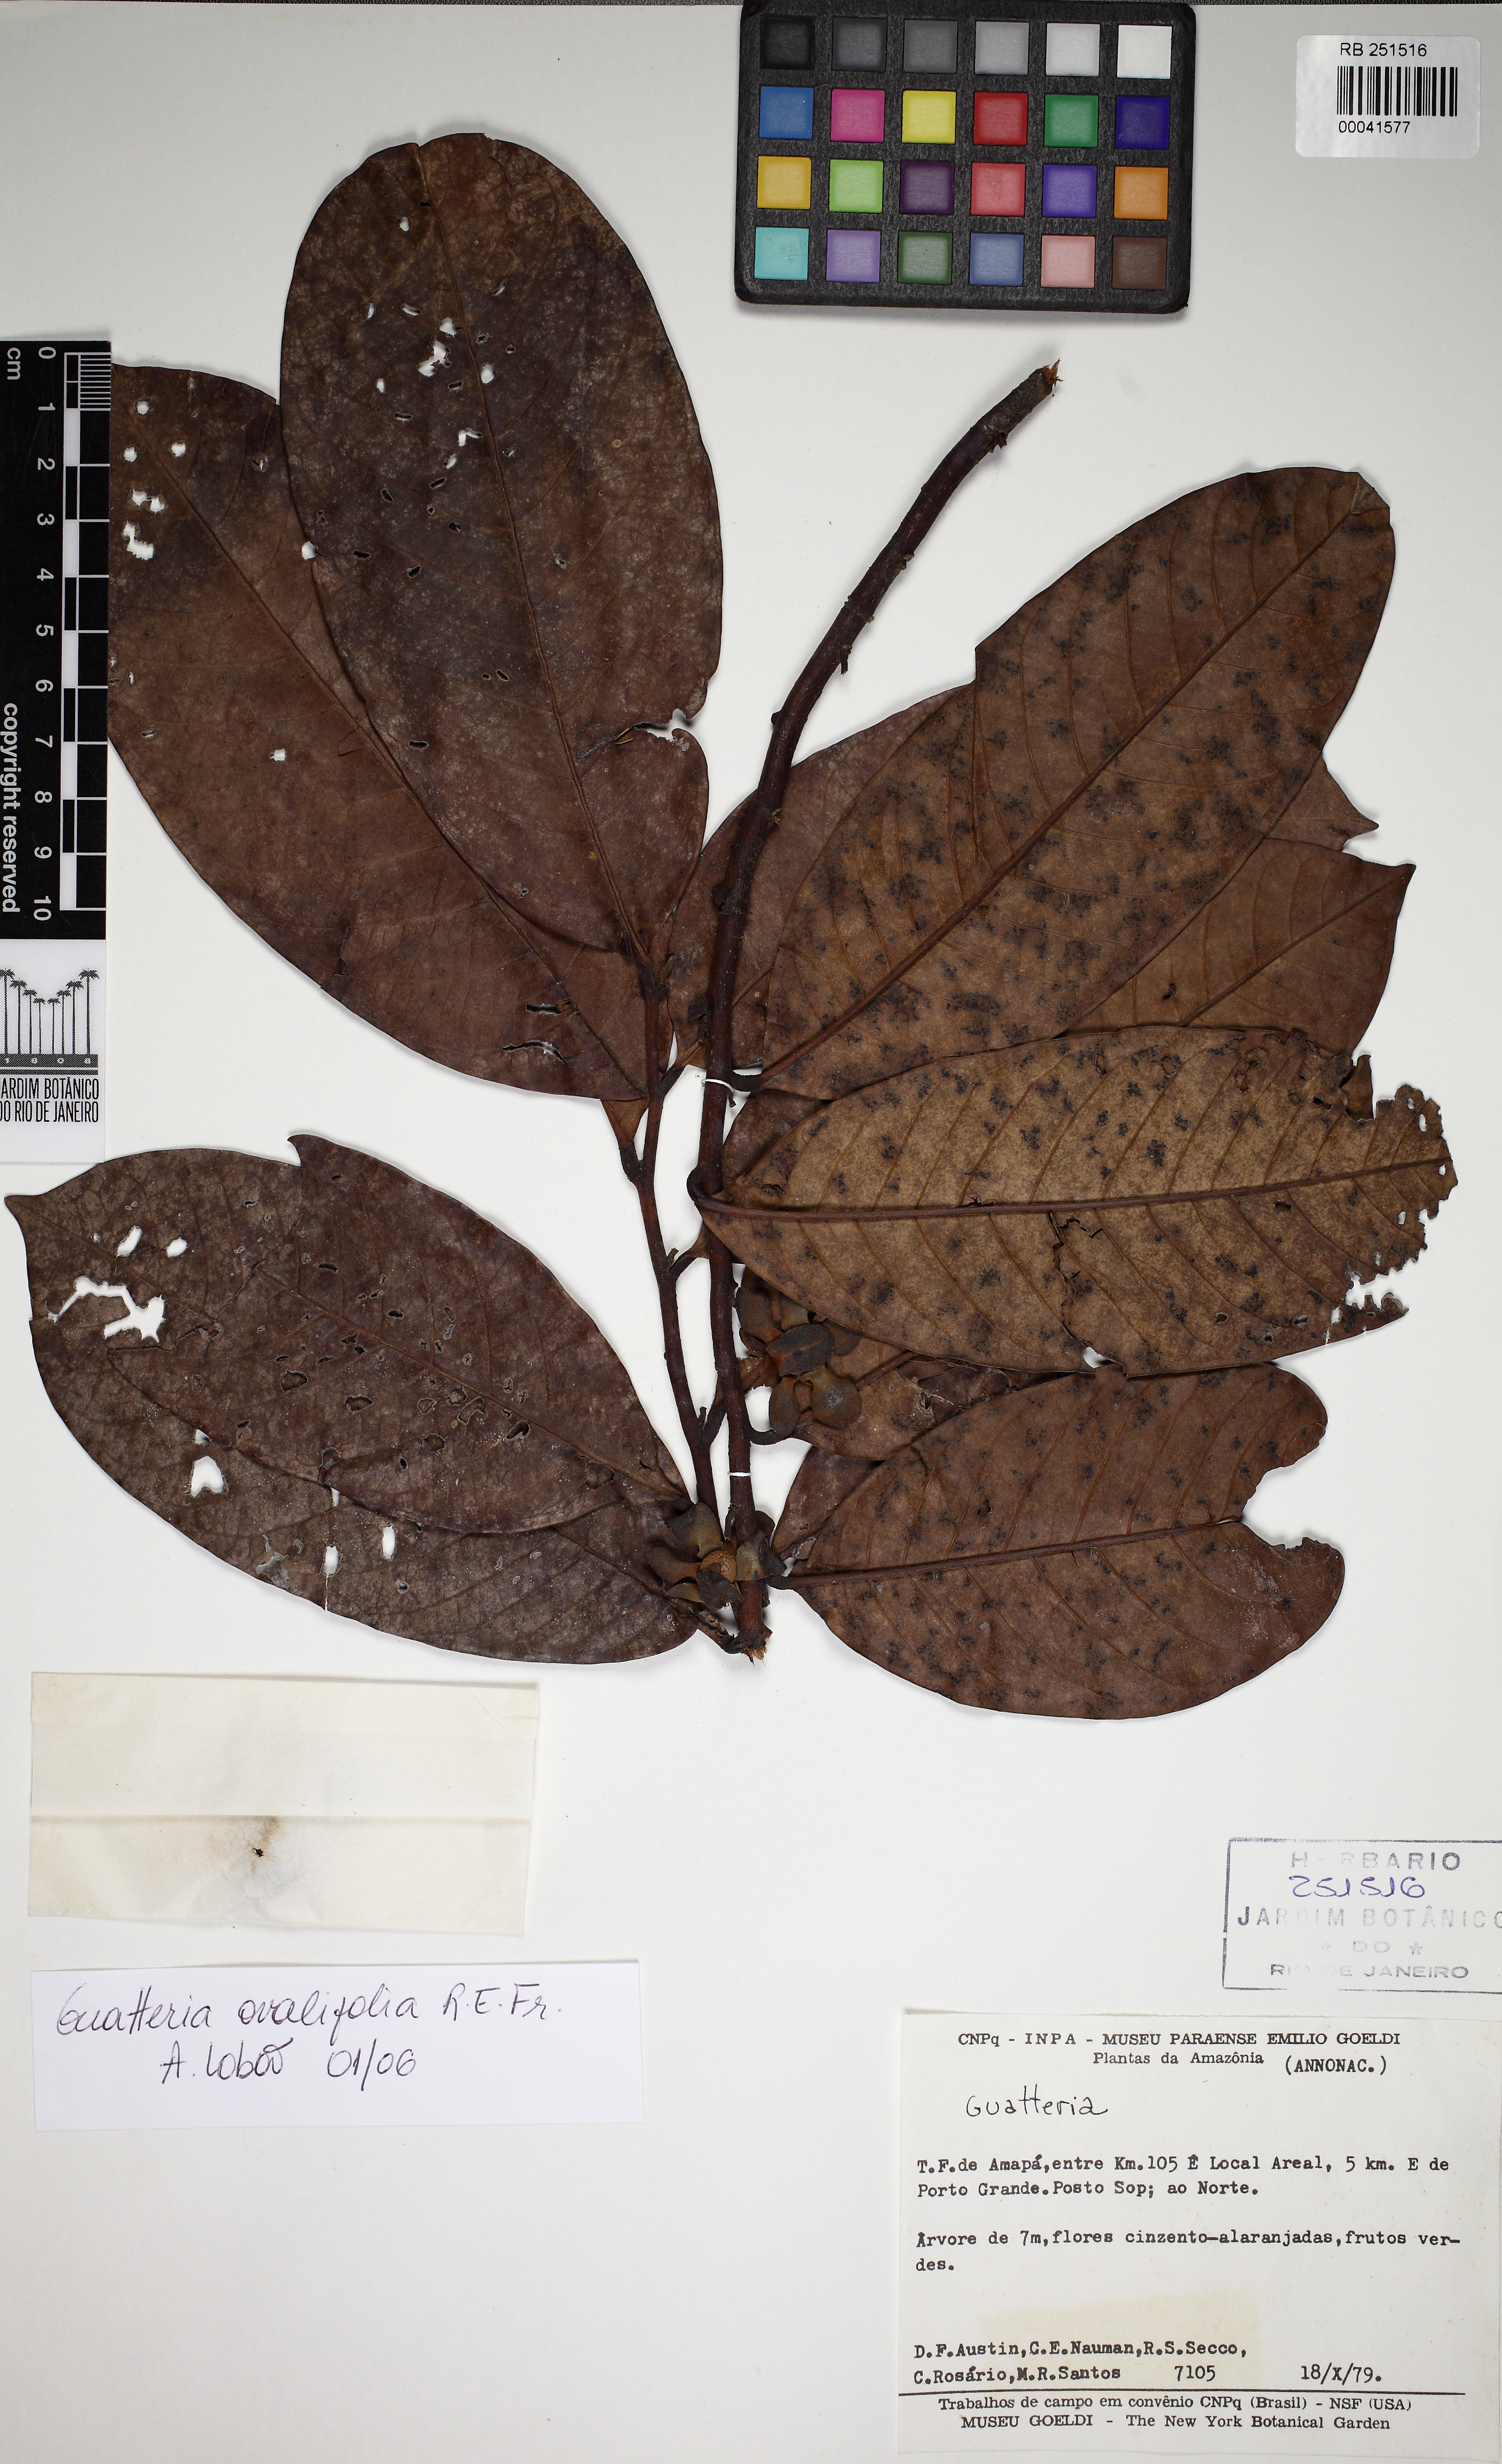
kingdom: Plantae
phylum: Tracheophyta
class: Magnoliopsida
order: Magnoliales
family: Annonaceae
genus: Guatteria
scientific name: Guatteria ovalifolia
